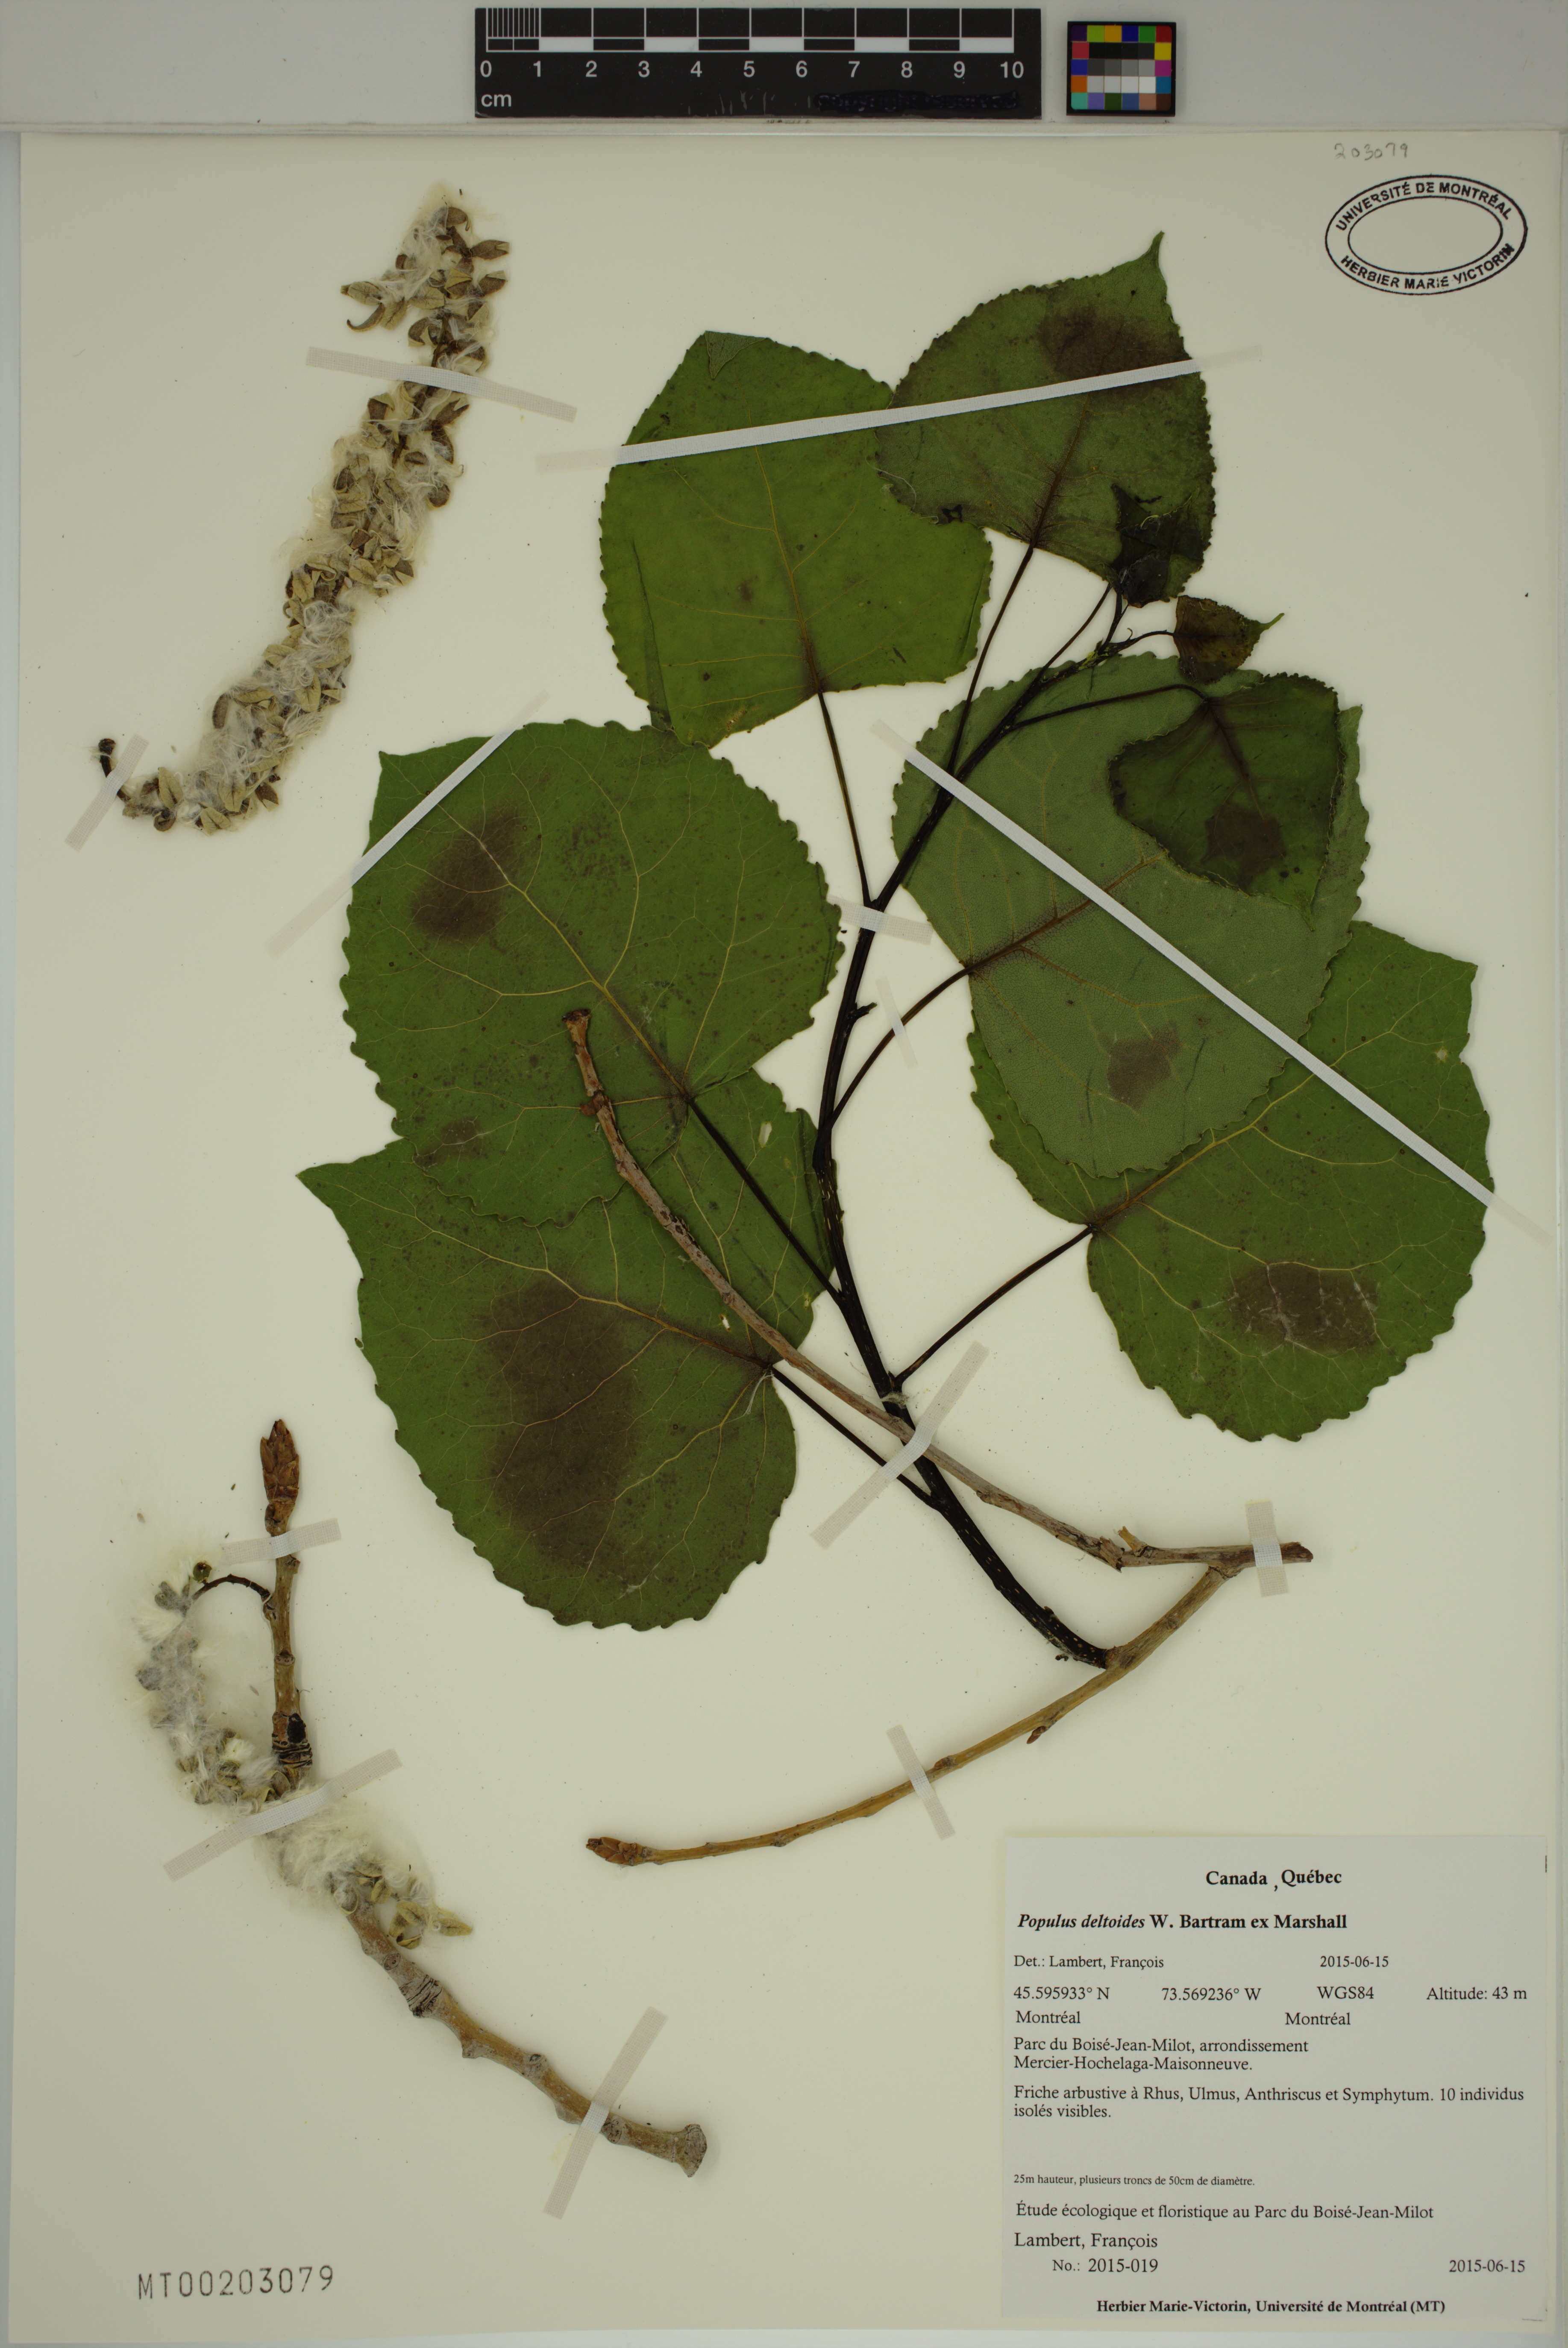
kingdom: Plantae
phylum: Tracheophyta
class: Magnoliopsida
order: Malpighiales
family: Salicaceae
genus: Populus
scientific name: Populus deltoides
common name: Eastern cottonwood
